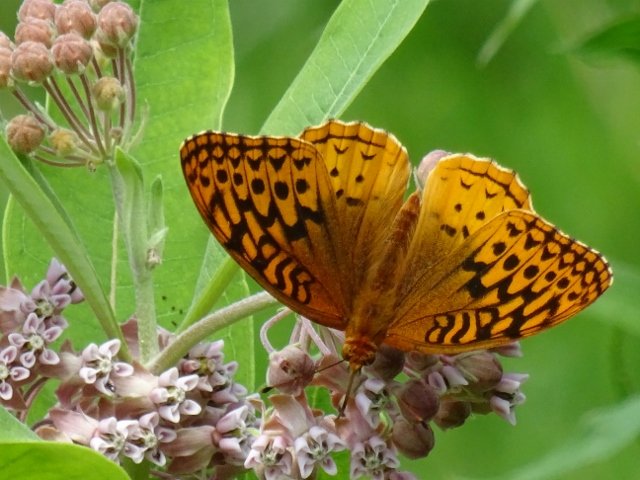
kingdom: Animalia
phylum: Arthropoda
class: Insecta
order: Lepidoptera
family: Nymphalidae
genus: Speyeria
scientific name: Speyeria cybele
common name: Great Spangled Fritillary
